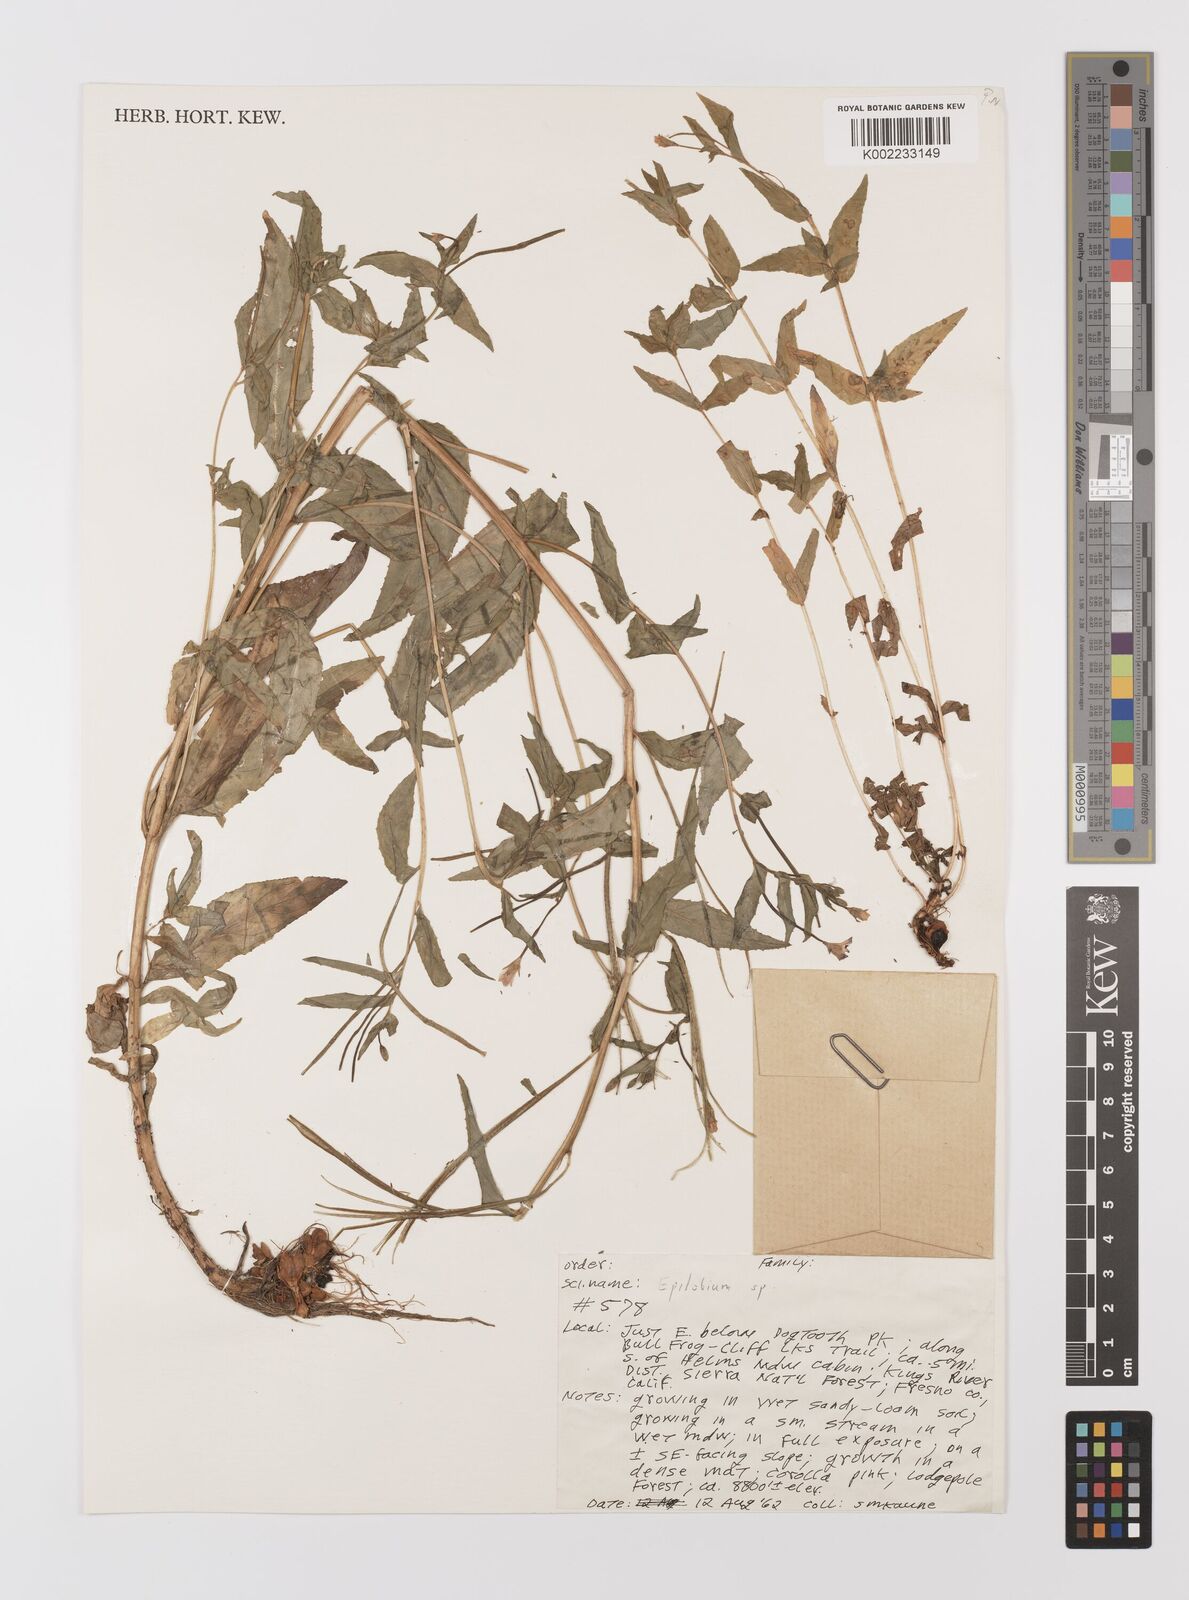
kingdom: Plantae
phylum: Tracheophyta
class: Magnoliopsida
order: Myrtales
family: Onagraceae
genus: Epilobium
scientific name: Epilobium
